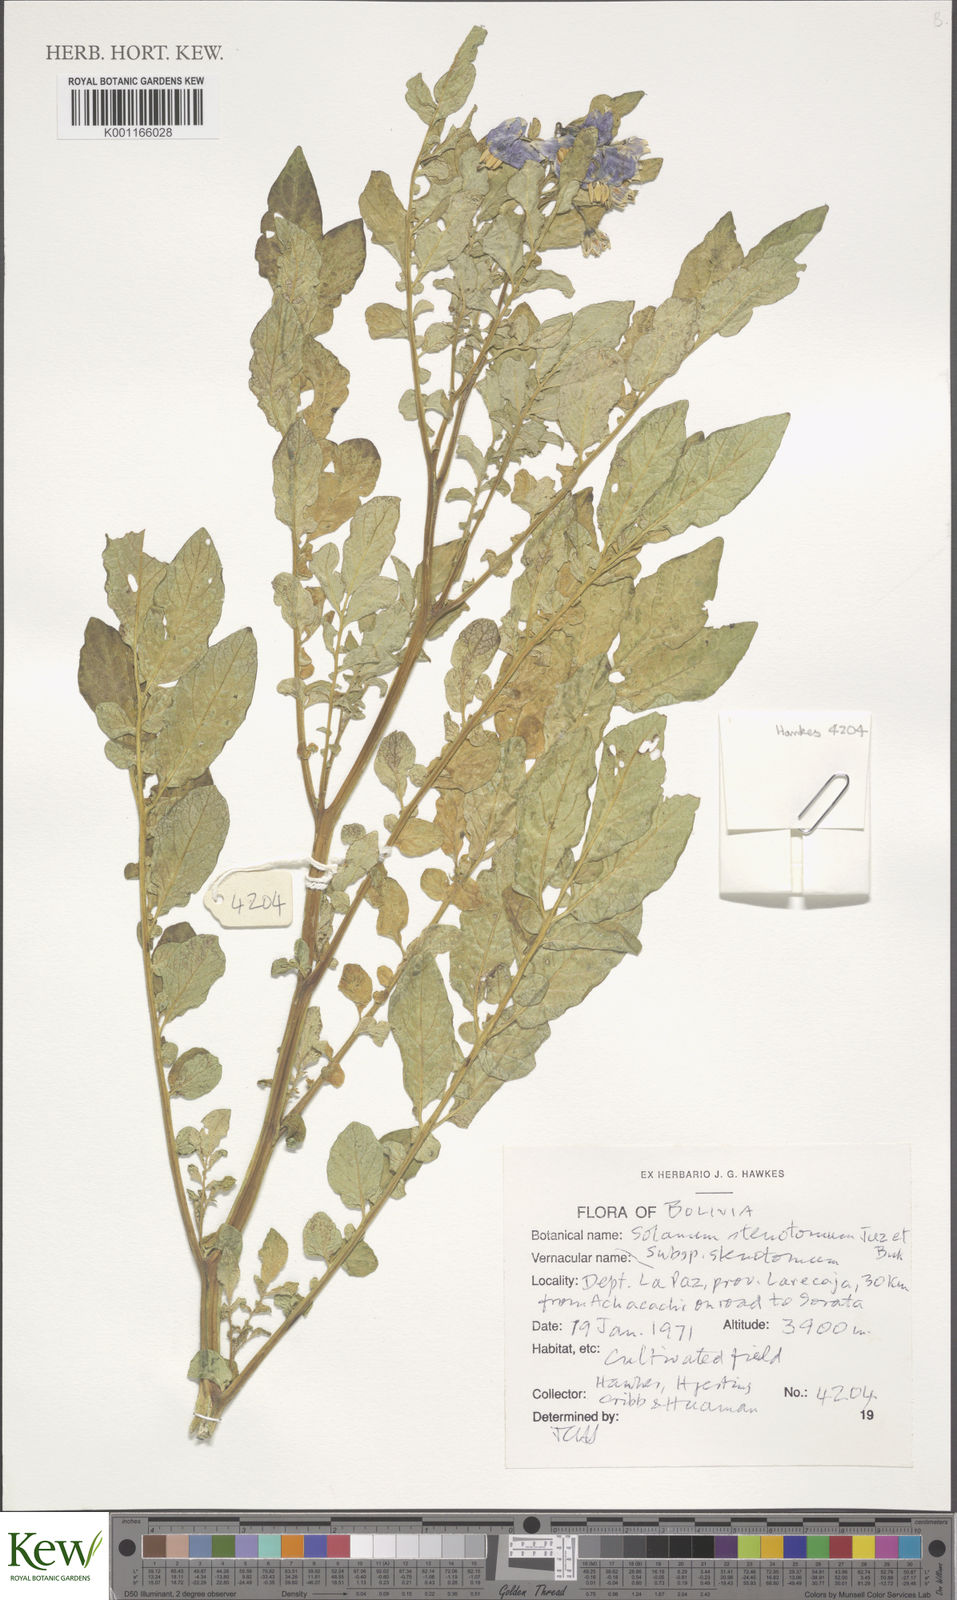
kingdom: Plantae
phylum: Tracheophyta
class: Magnoliopsida
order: Solanales
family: Solanaceae
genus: Solanum
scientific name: Solanum tuberosum
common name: Potato
